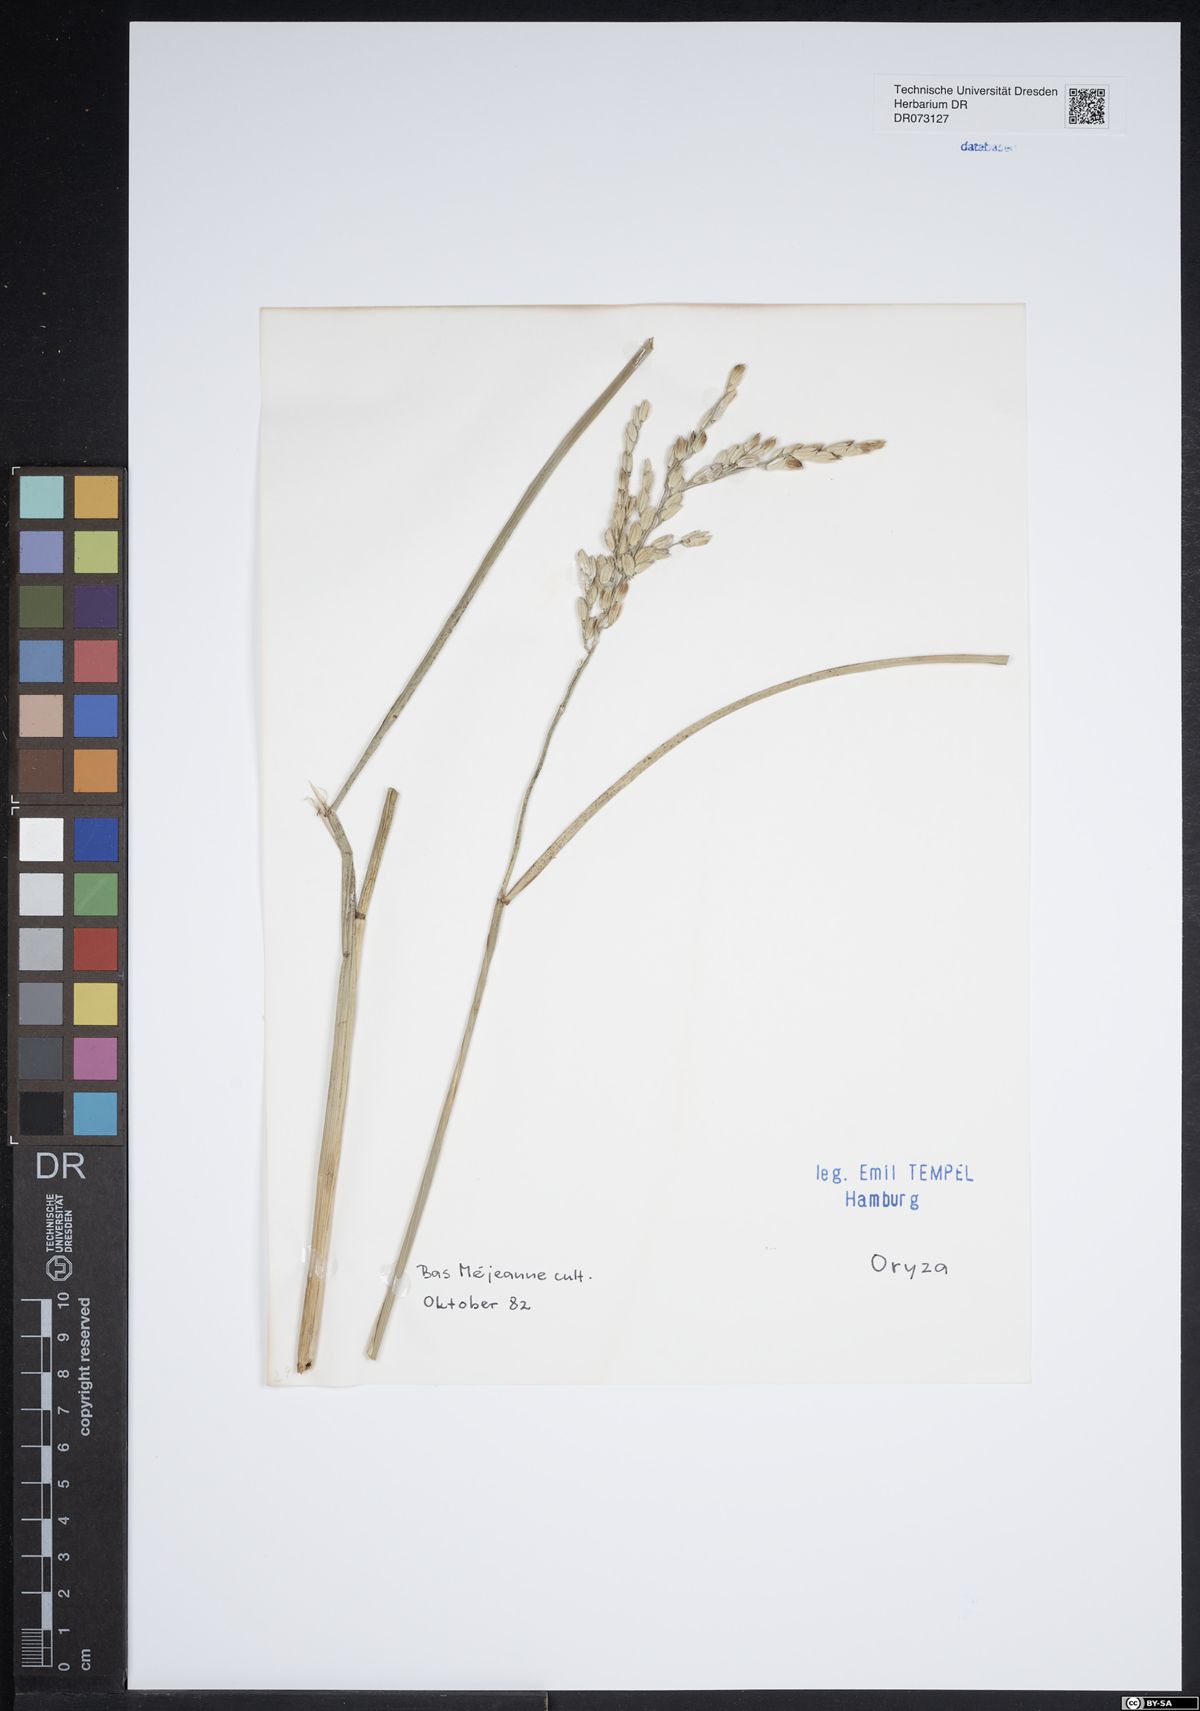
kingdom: Plantae
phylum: Tracheophyta
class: Liliopsida
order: Poales
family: Poaceae
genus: Oryza
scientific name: Oryza
